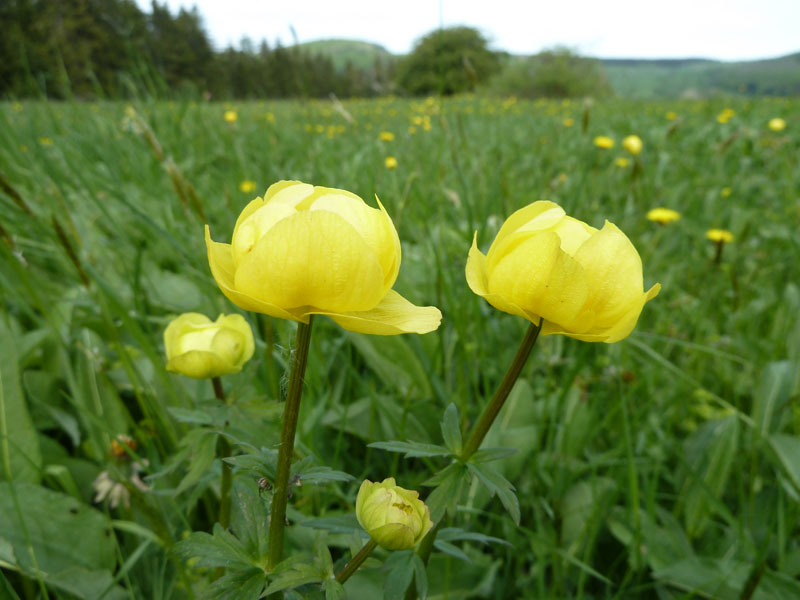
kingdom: Plantae
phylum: Tracheophyta
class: Magnoliopsida
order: Ranunculales
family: Ranunculaceae
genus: Trollius
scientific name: Trollius europaeus
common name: European globeflower
